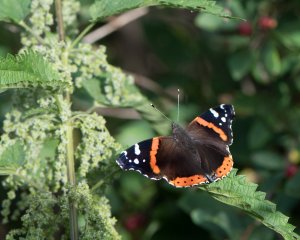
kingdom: Animalia
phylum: Arthropoda
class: Insecta
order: Lepidoptera
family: Nymphalidae
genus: Vanessa
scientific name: Vanessa atalanta
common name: Red Admiral
